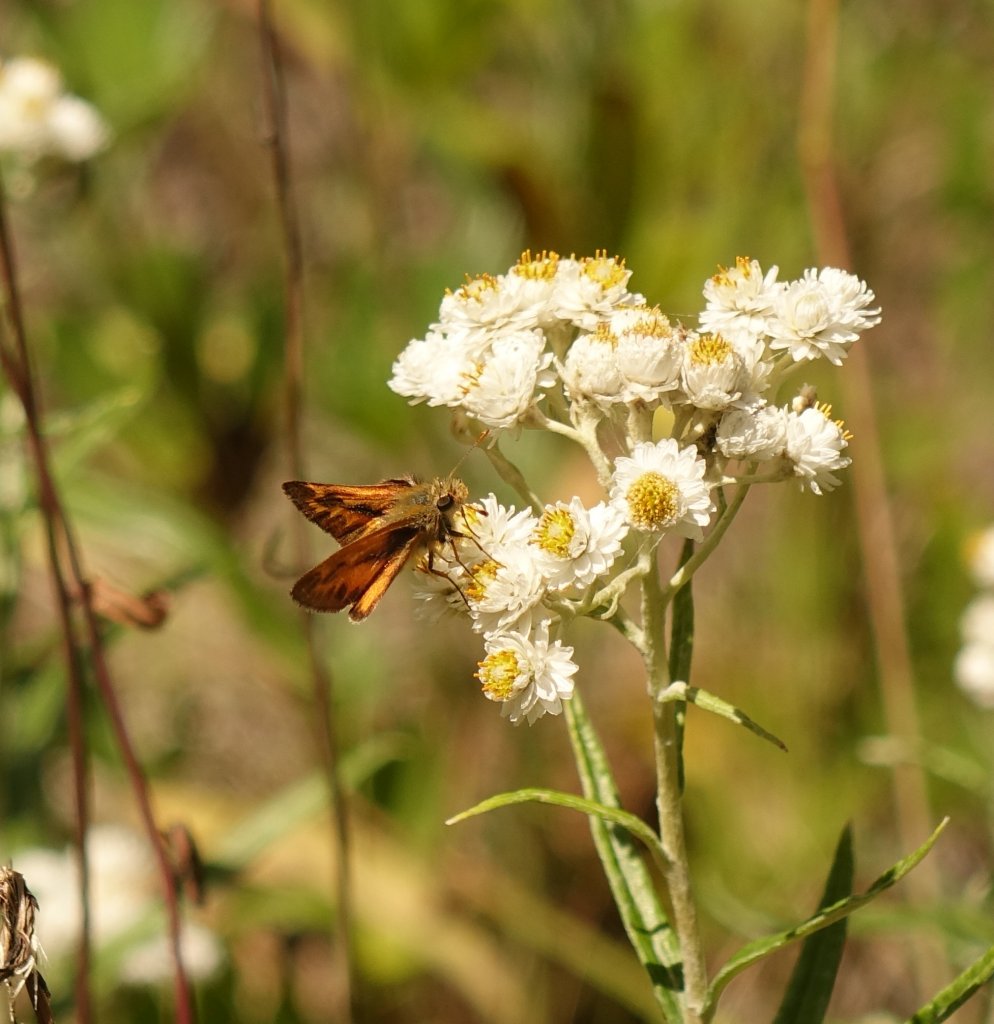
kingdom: Animalia
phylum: Arthropoda
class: Insecta
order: Lepidoptera
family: Hesperiidae
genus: Ochlodes
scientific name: Ochlodes sylvanoides
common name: Woodland Skipper
